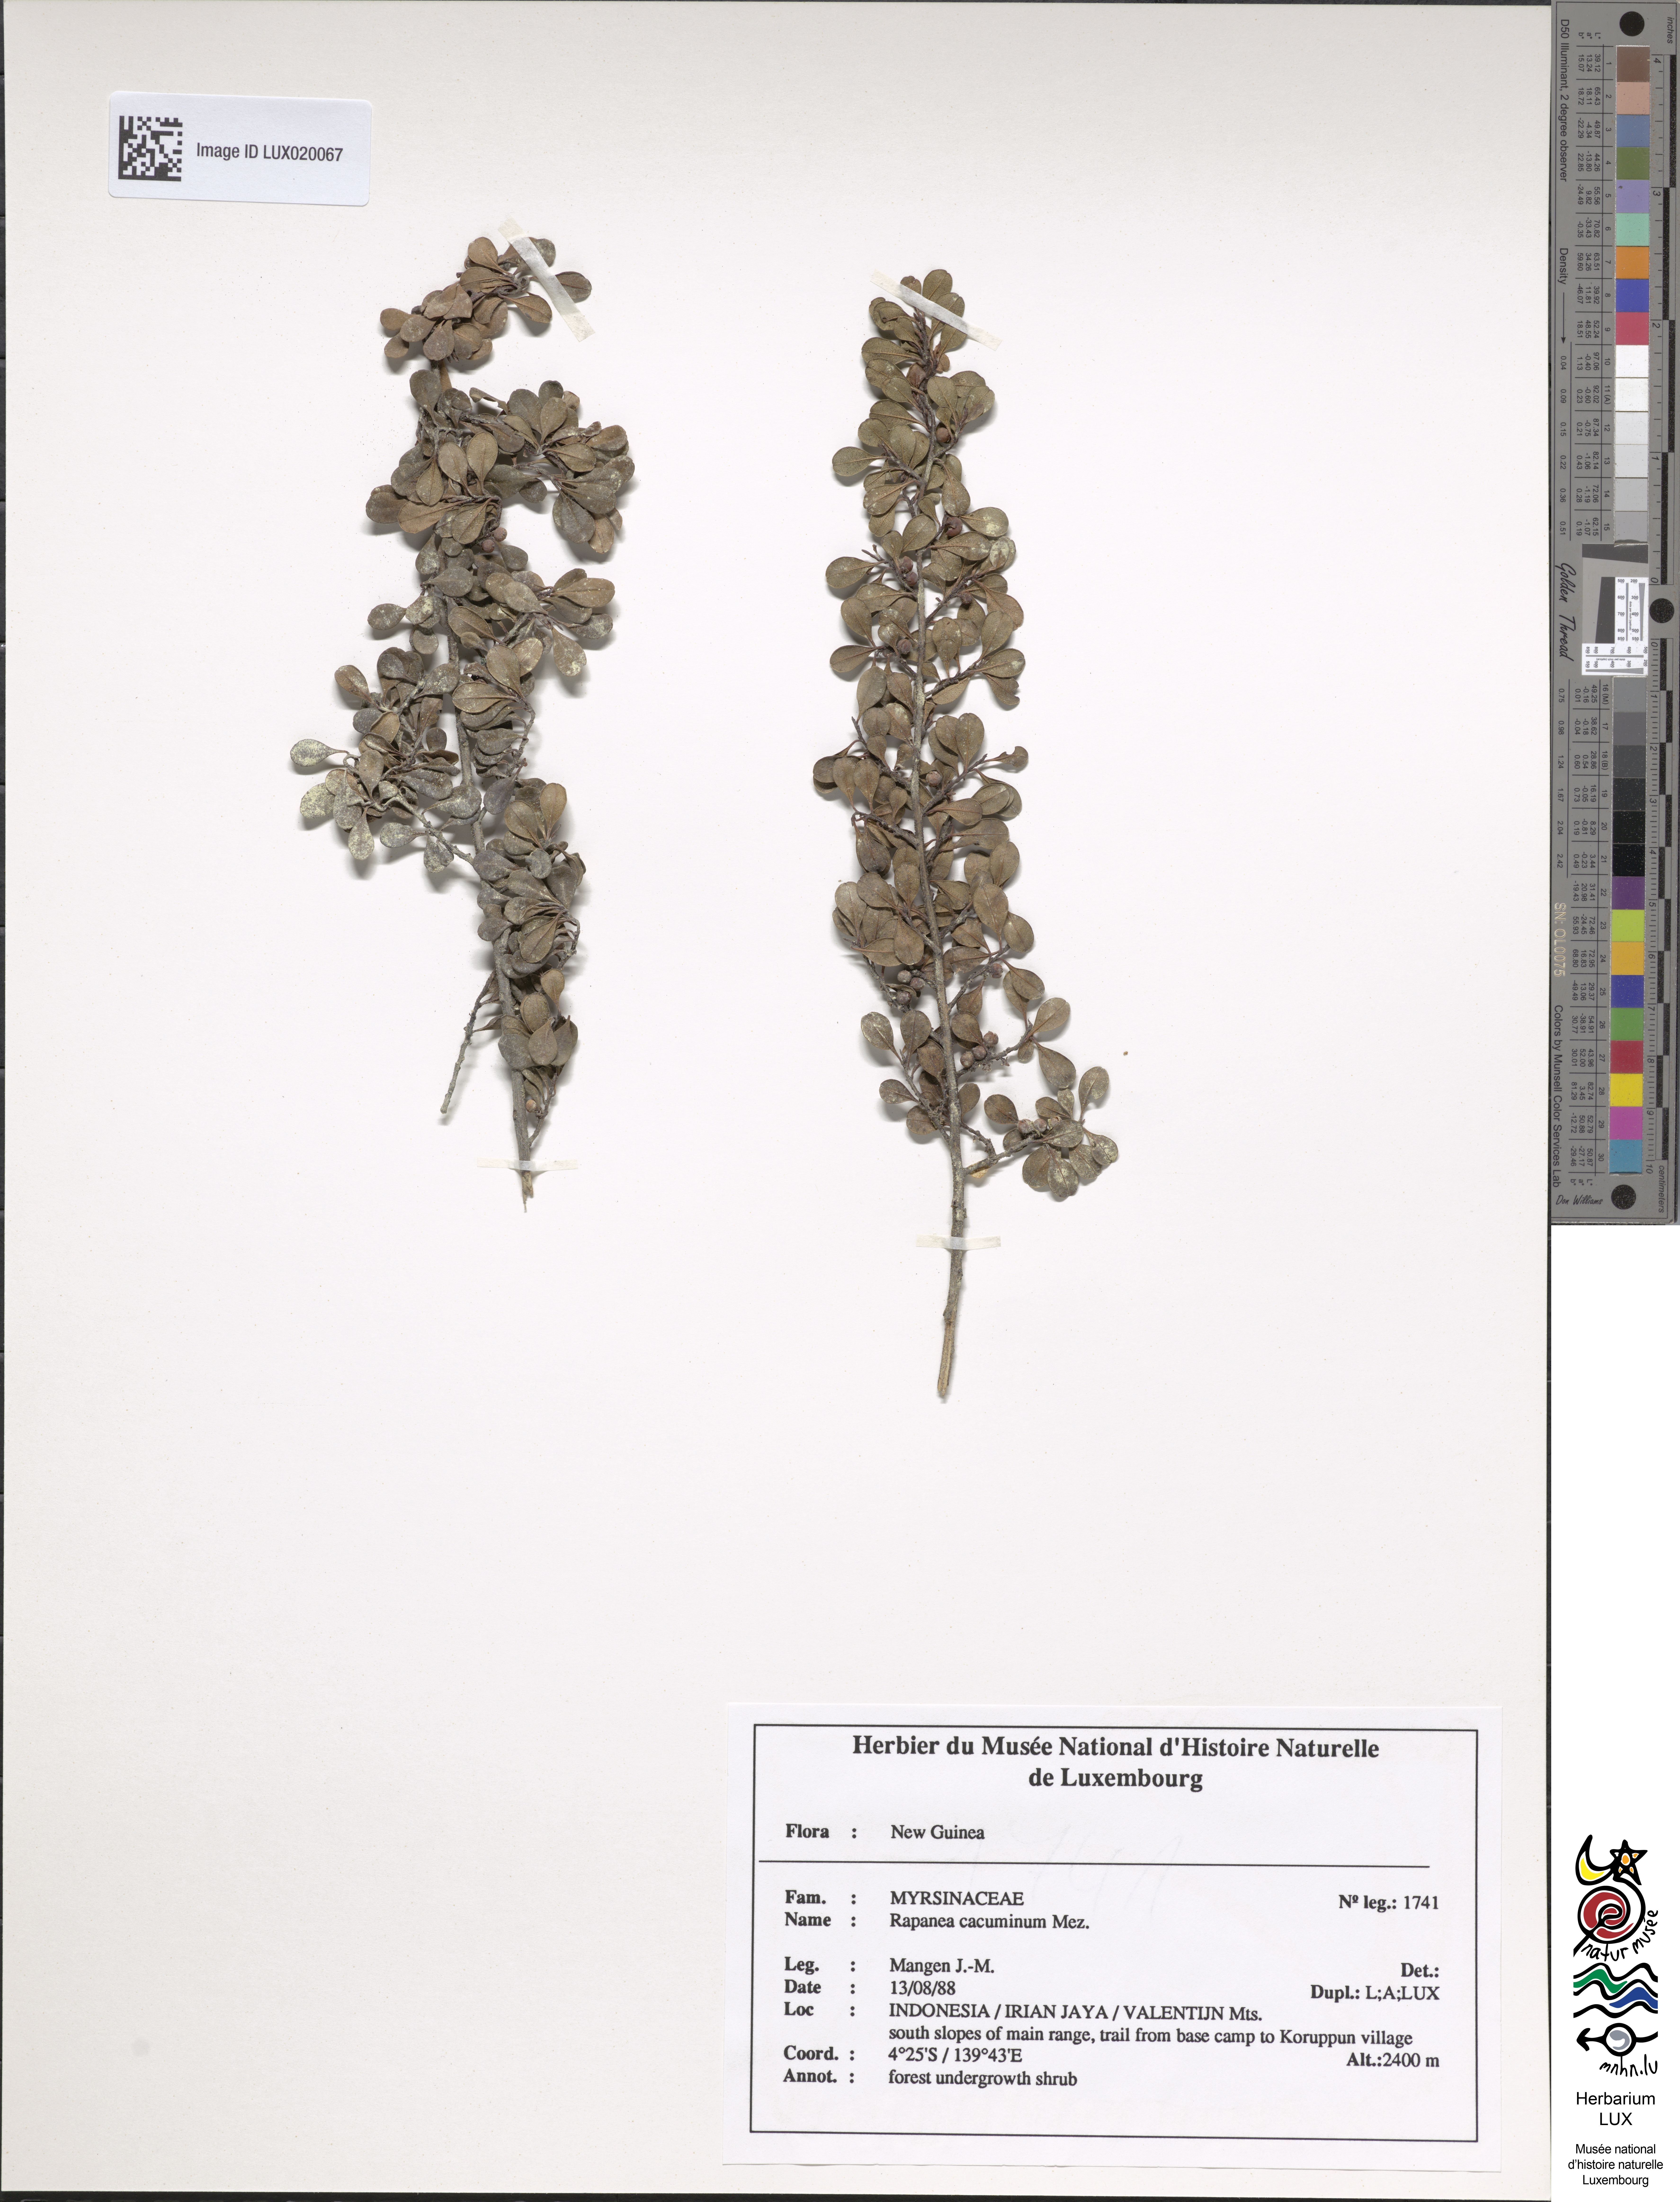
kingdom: Plantae
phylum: Tracheophyta
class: Magnoliopsida
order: Ericales
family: Primulaceae
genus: Myrsine
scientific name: Myrsine cacuminum
